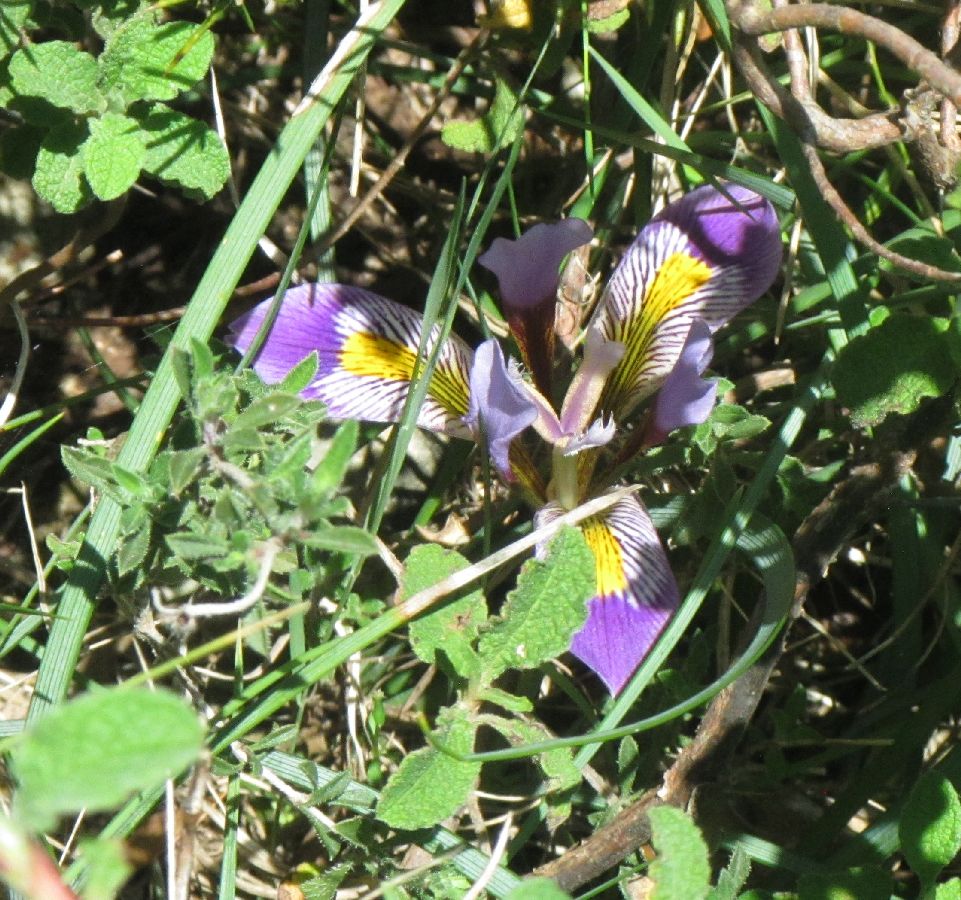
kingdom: Plantae
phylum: Tracheophyta
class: Liliopsida
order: Asparagales
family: Iridaceae
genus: Iris
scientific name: Iris unguicularis
